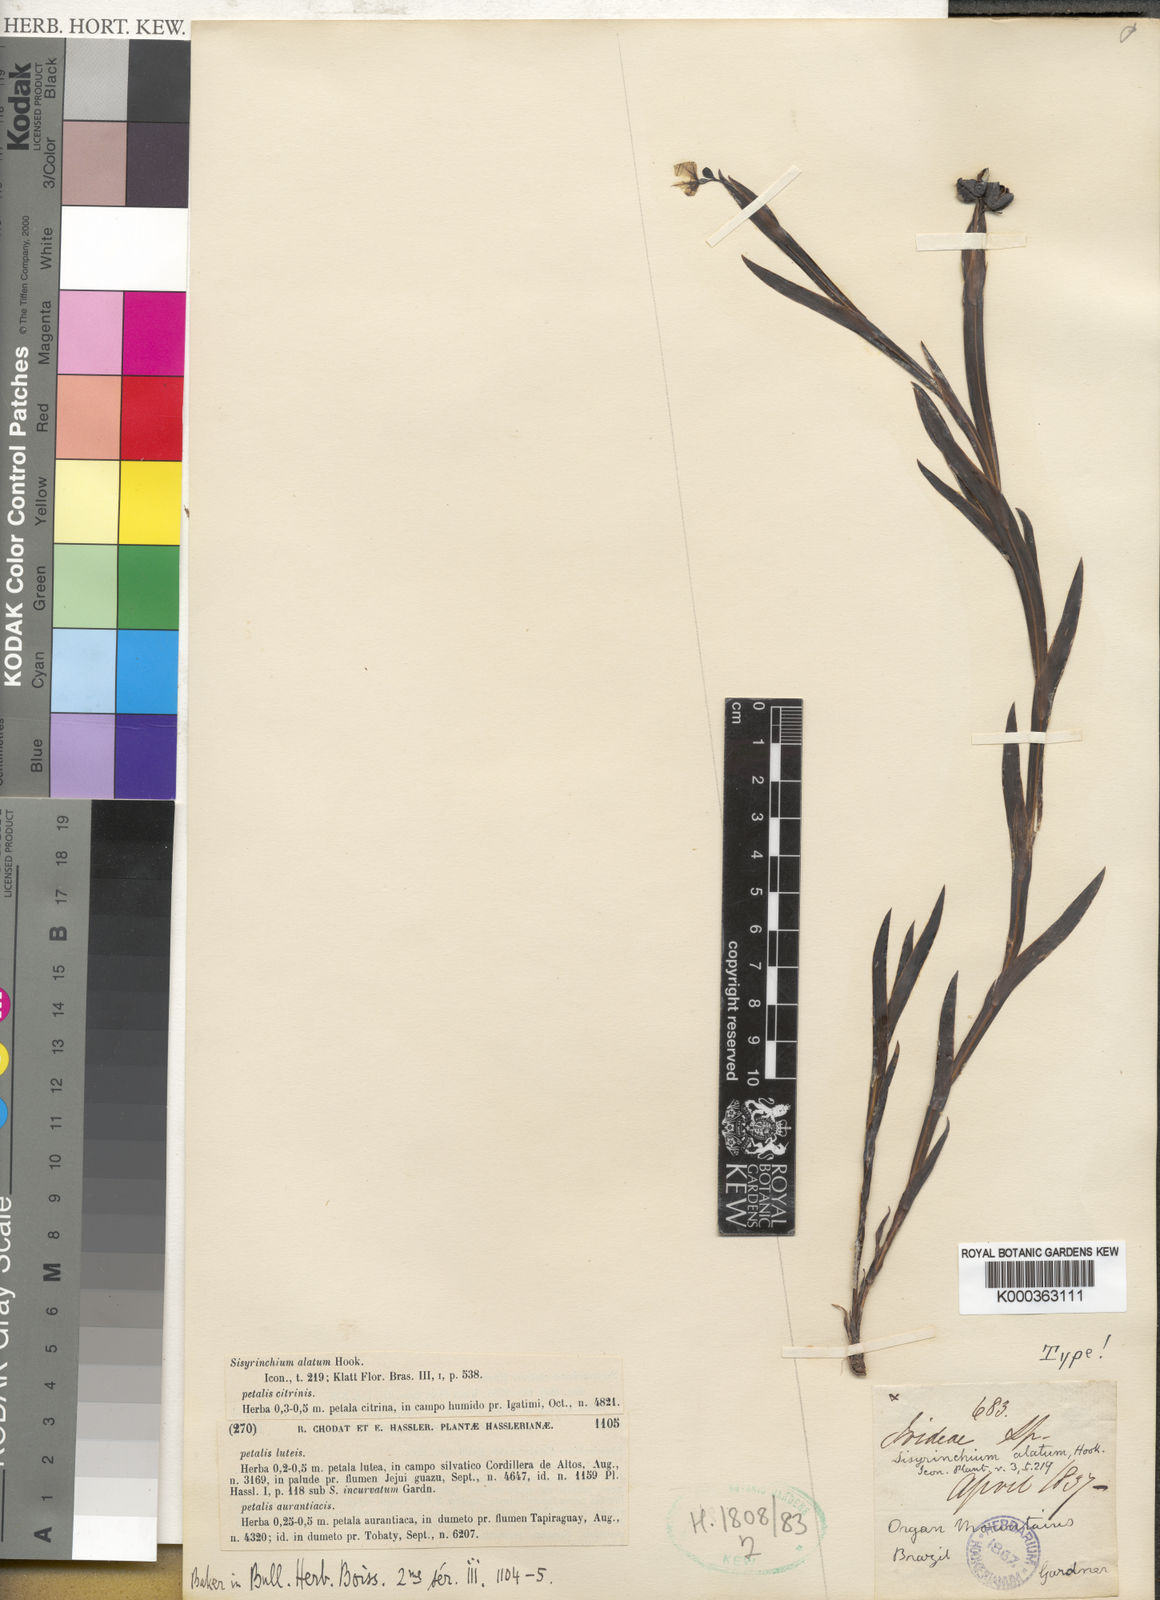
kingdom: Plantae
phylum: Tracheophyta
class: Liliopsida
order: Asparagales
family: Iridaceae
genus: Sisyrinchium
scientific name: Sisyrinchium vaginatum
